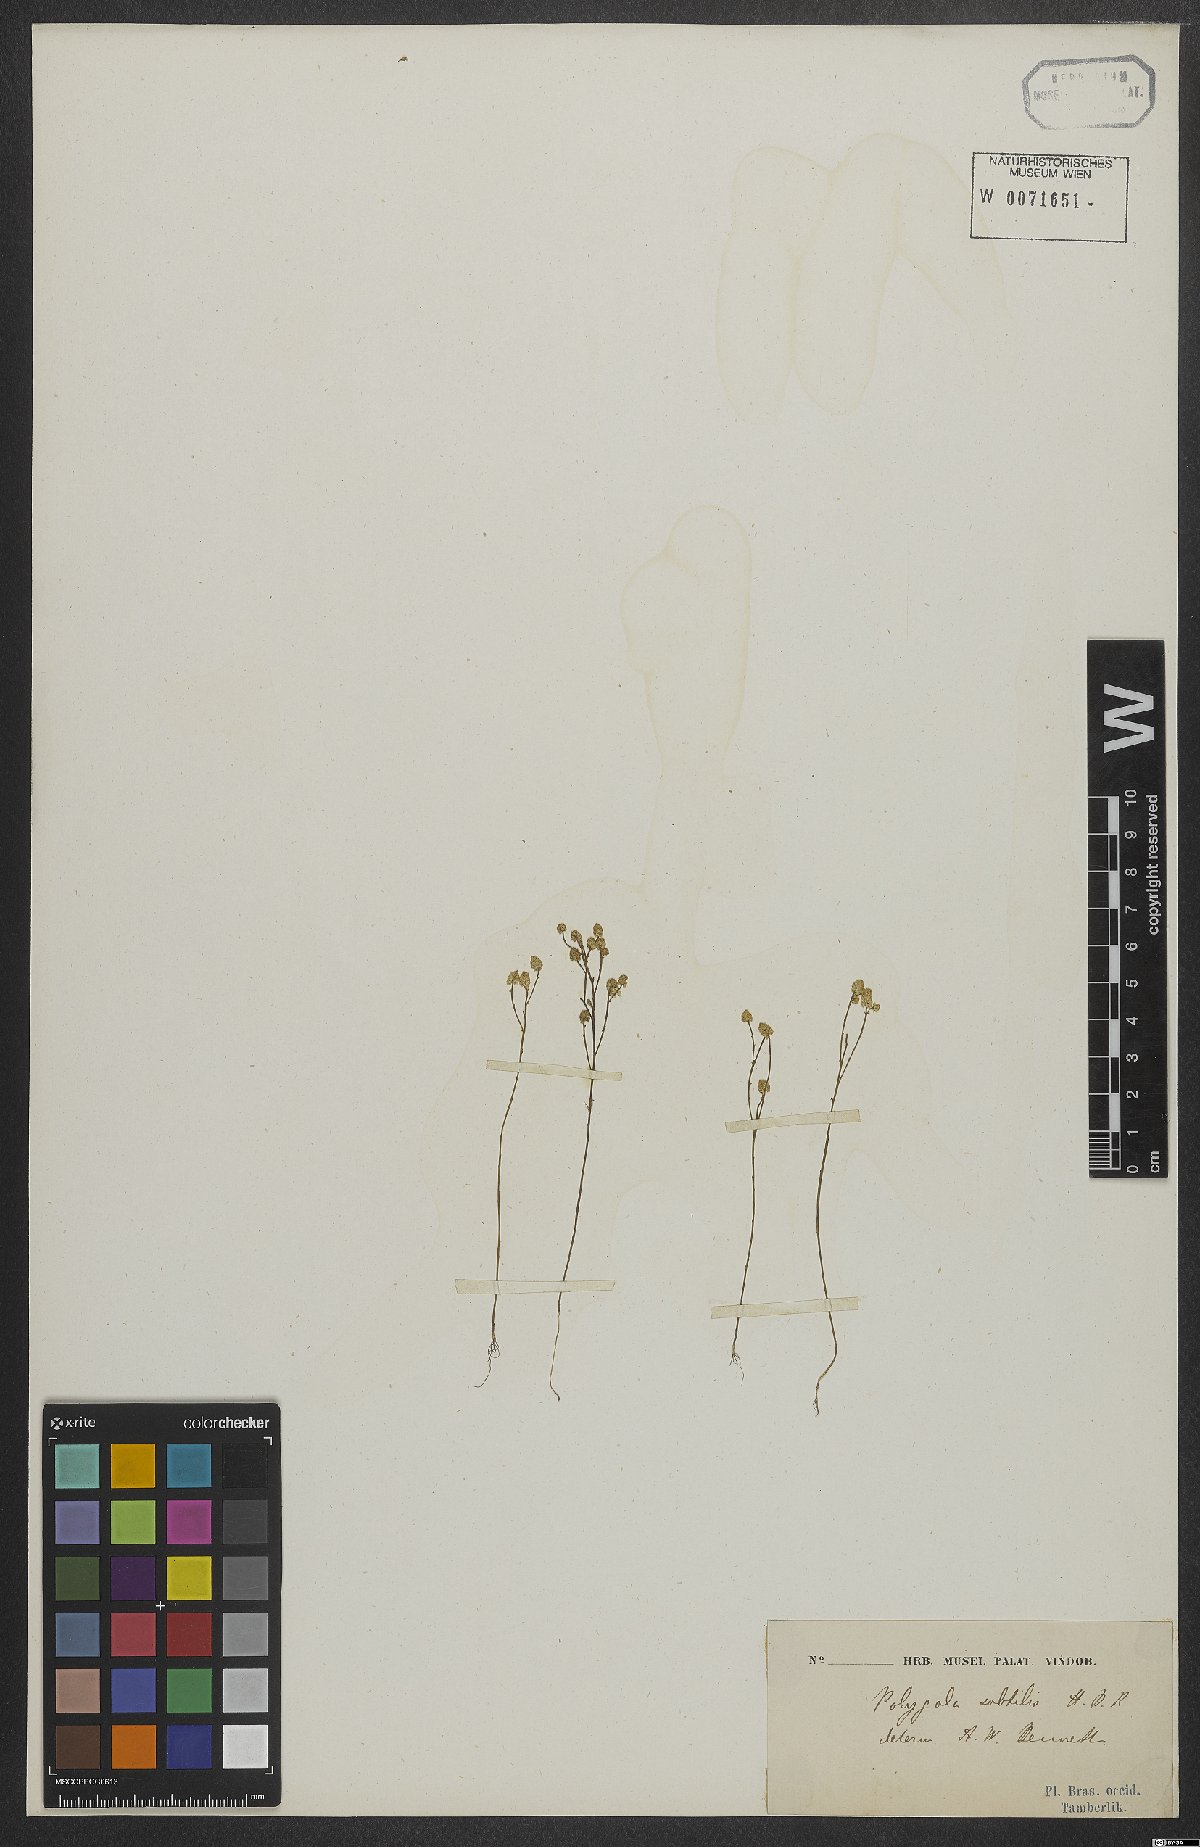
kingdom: Plantae
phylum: Tracheophyta
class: Magnoliopsida
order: Fabales
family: Polygalaceae
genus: Polygala
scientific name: Polygala subtilis
